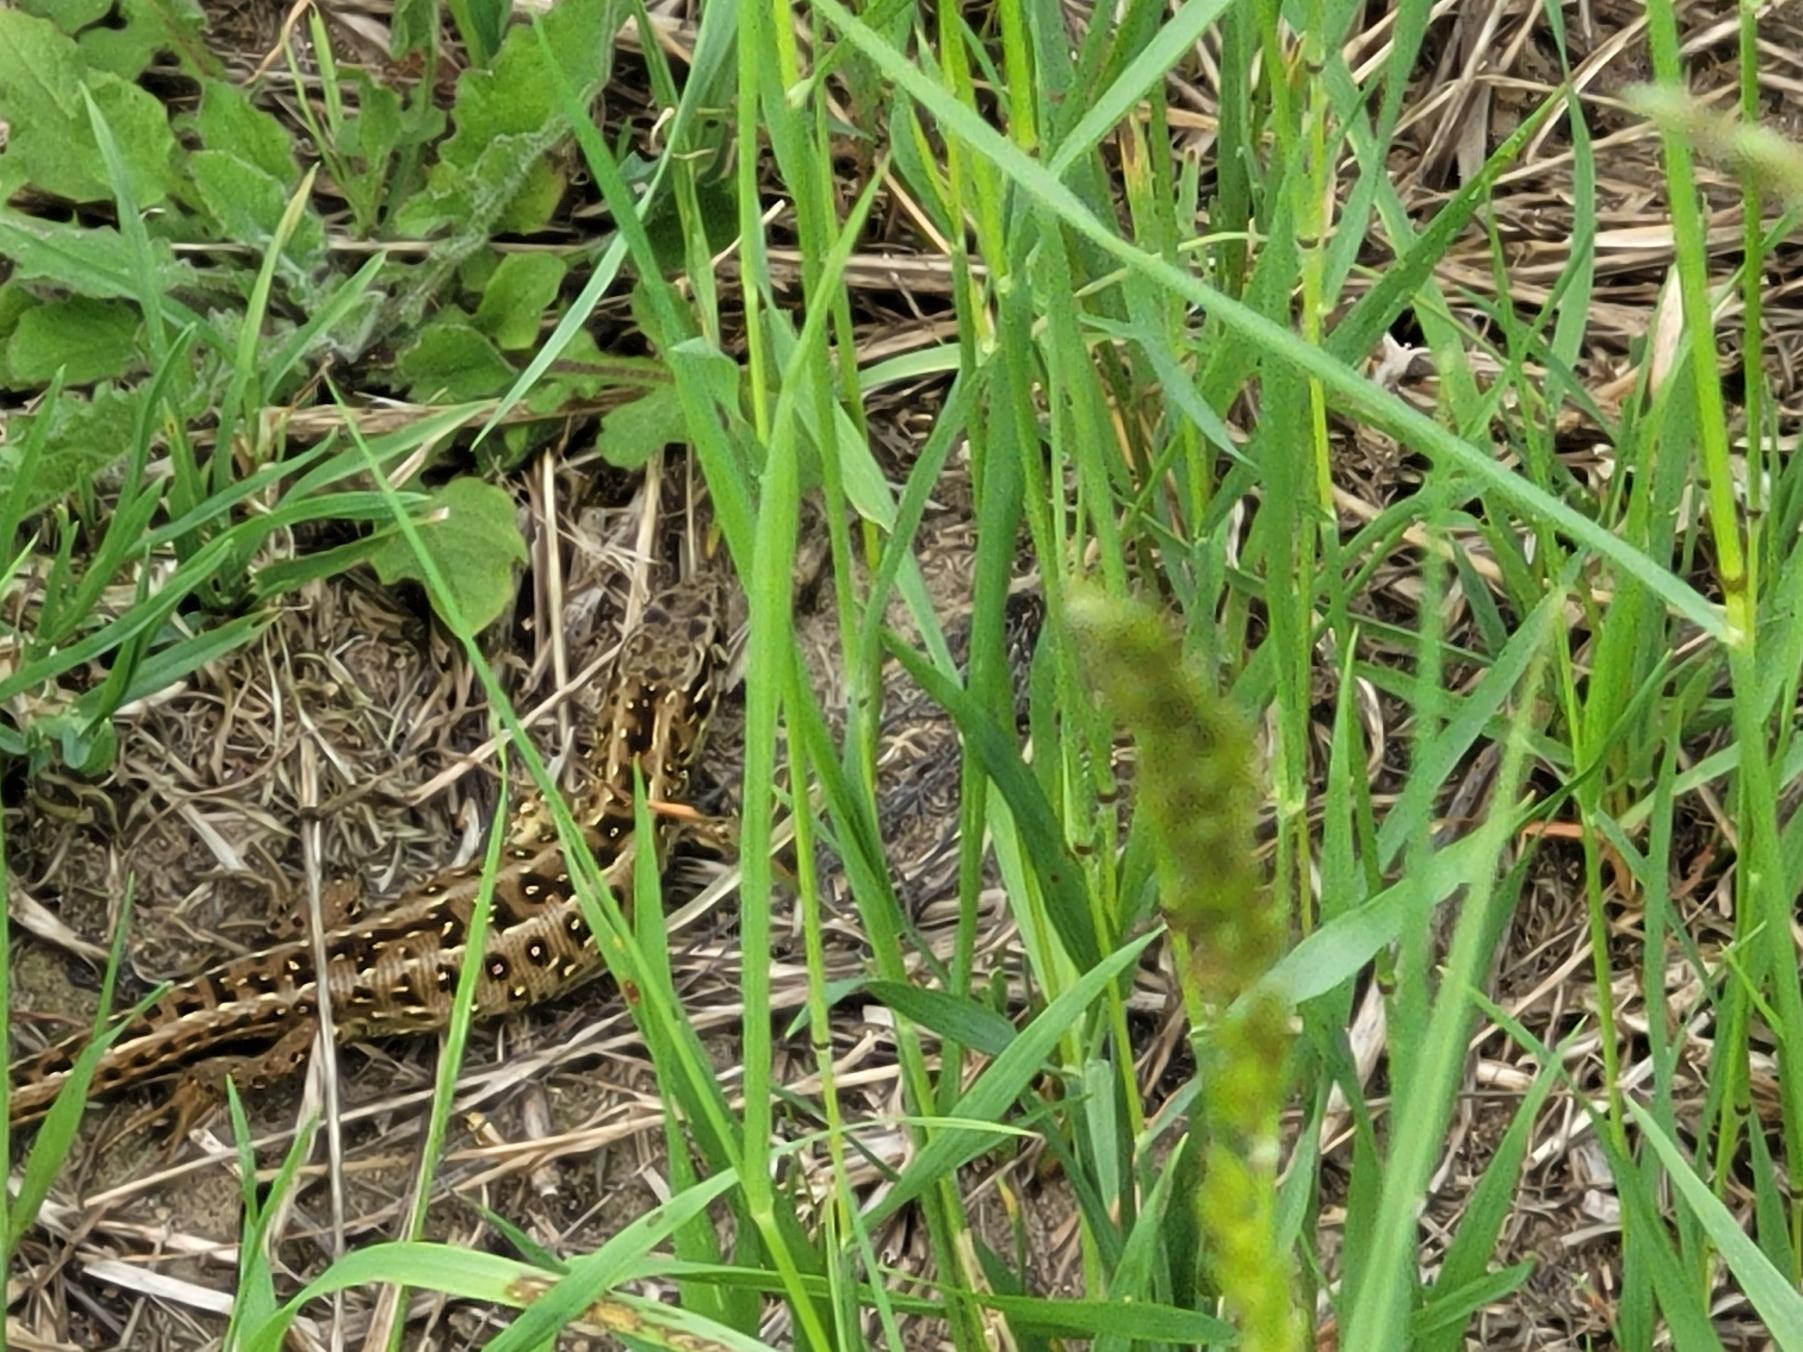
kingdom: Animalia
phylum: Chordata
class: Squamata
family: Lacertidae
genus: Lacerta
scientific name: Lacerta agilis
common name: Markfirben
